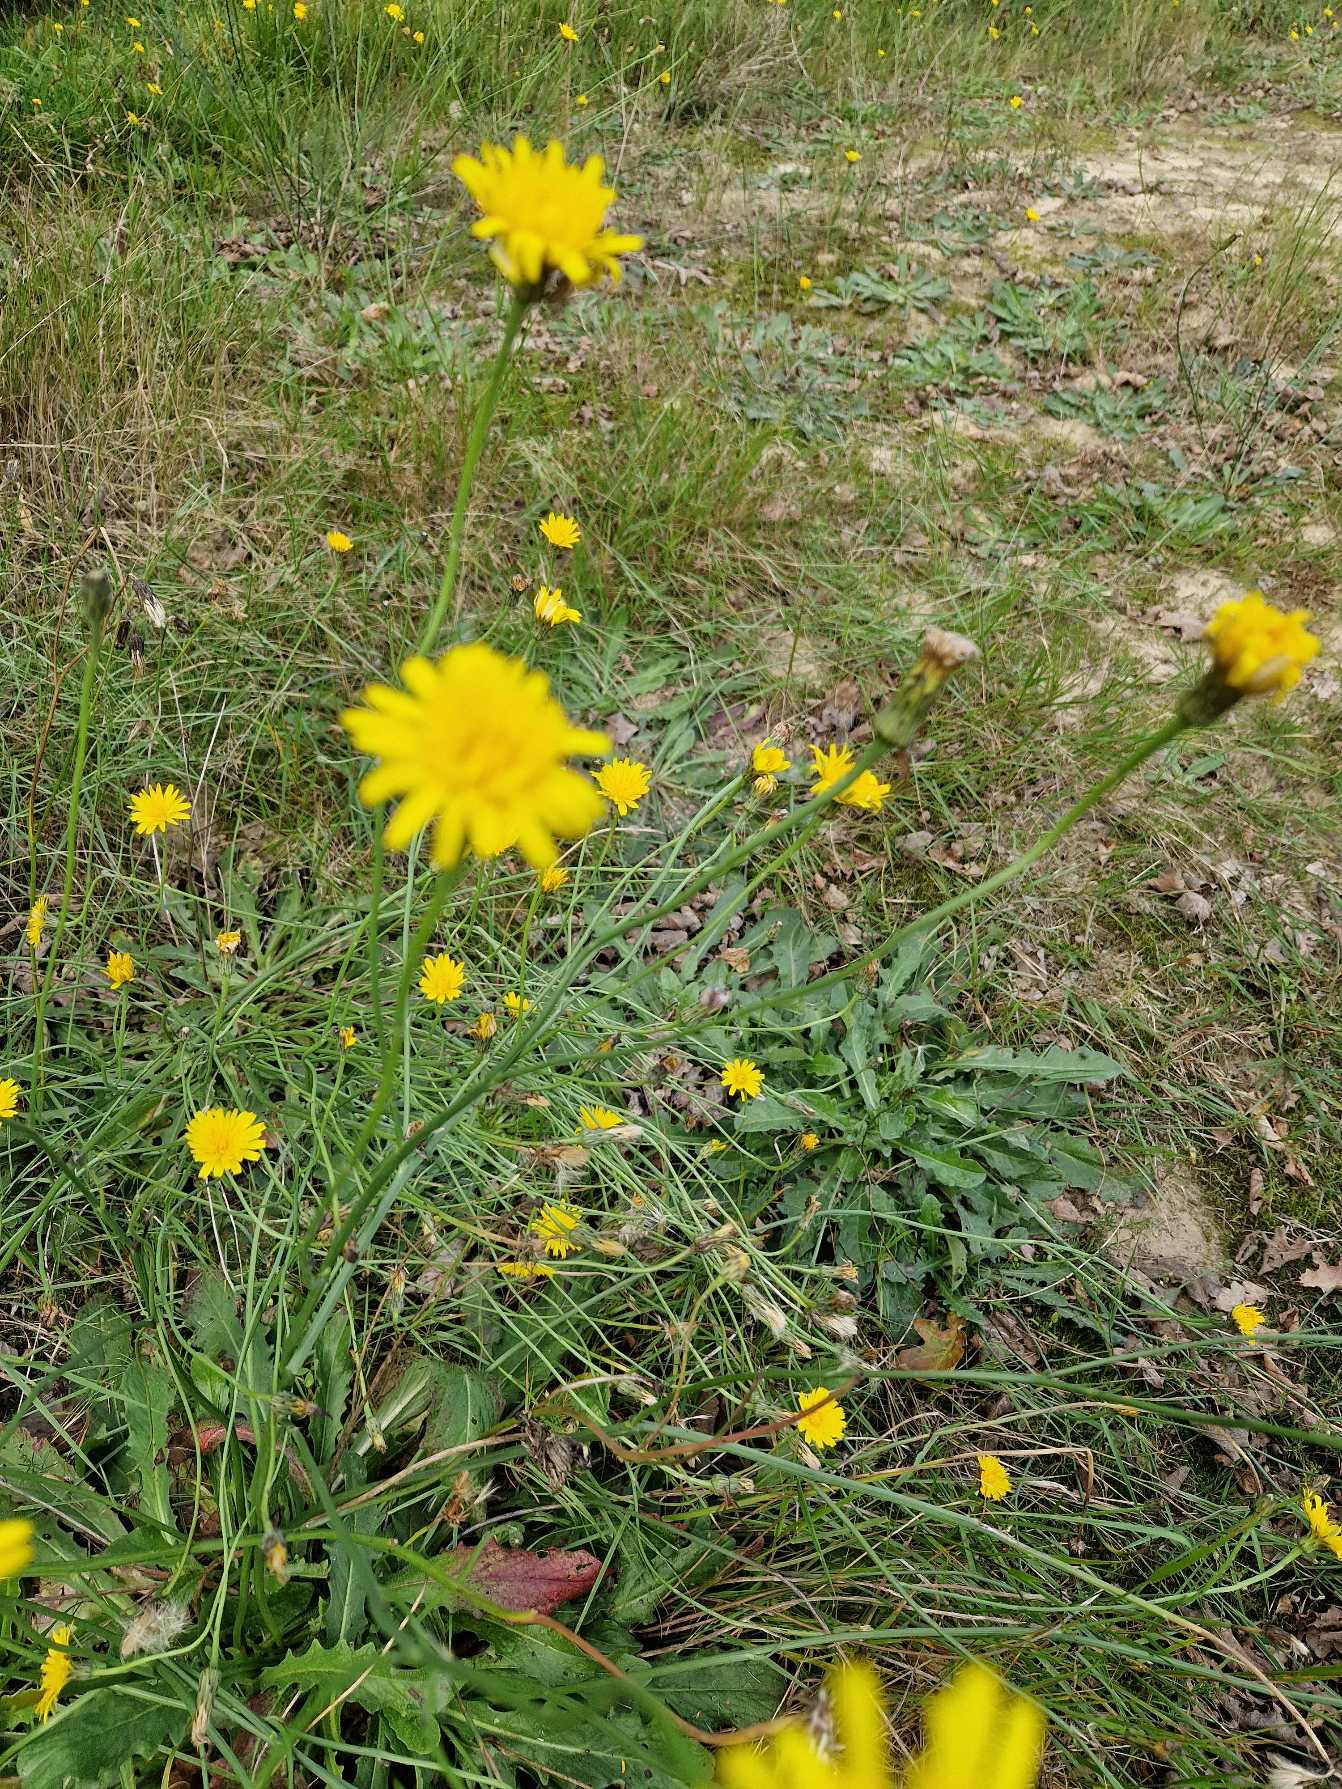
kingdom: Plantae
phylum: Tracheophyta
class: Magnoliopsida
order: Asterales
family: Asteraceae
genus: Hypochaeris
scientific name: Hypochaeris radicata
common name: Almindelig kongepen
